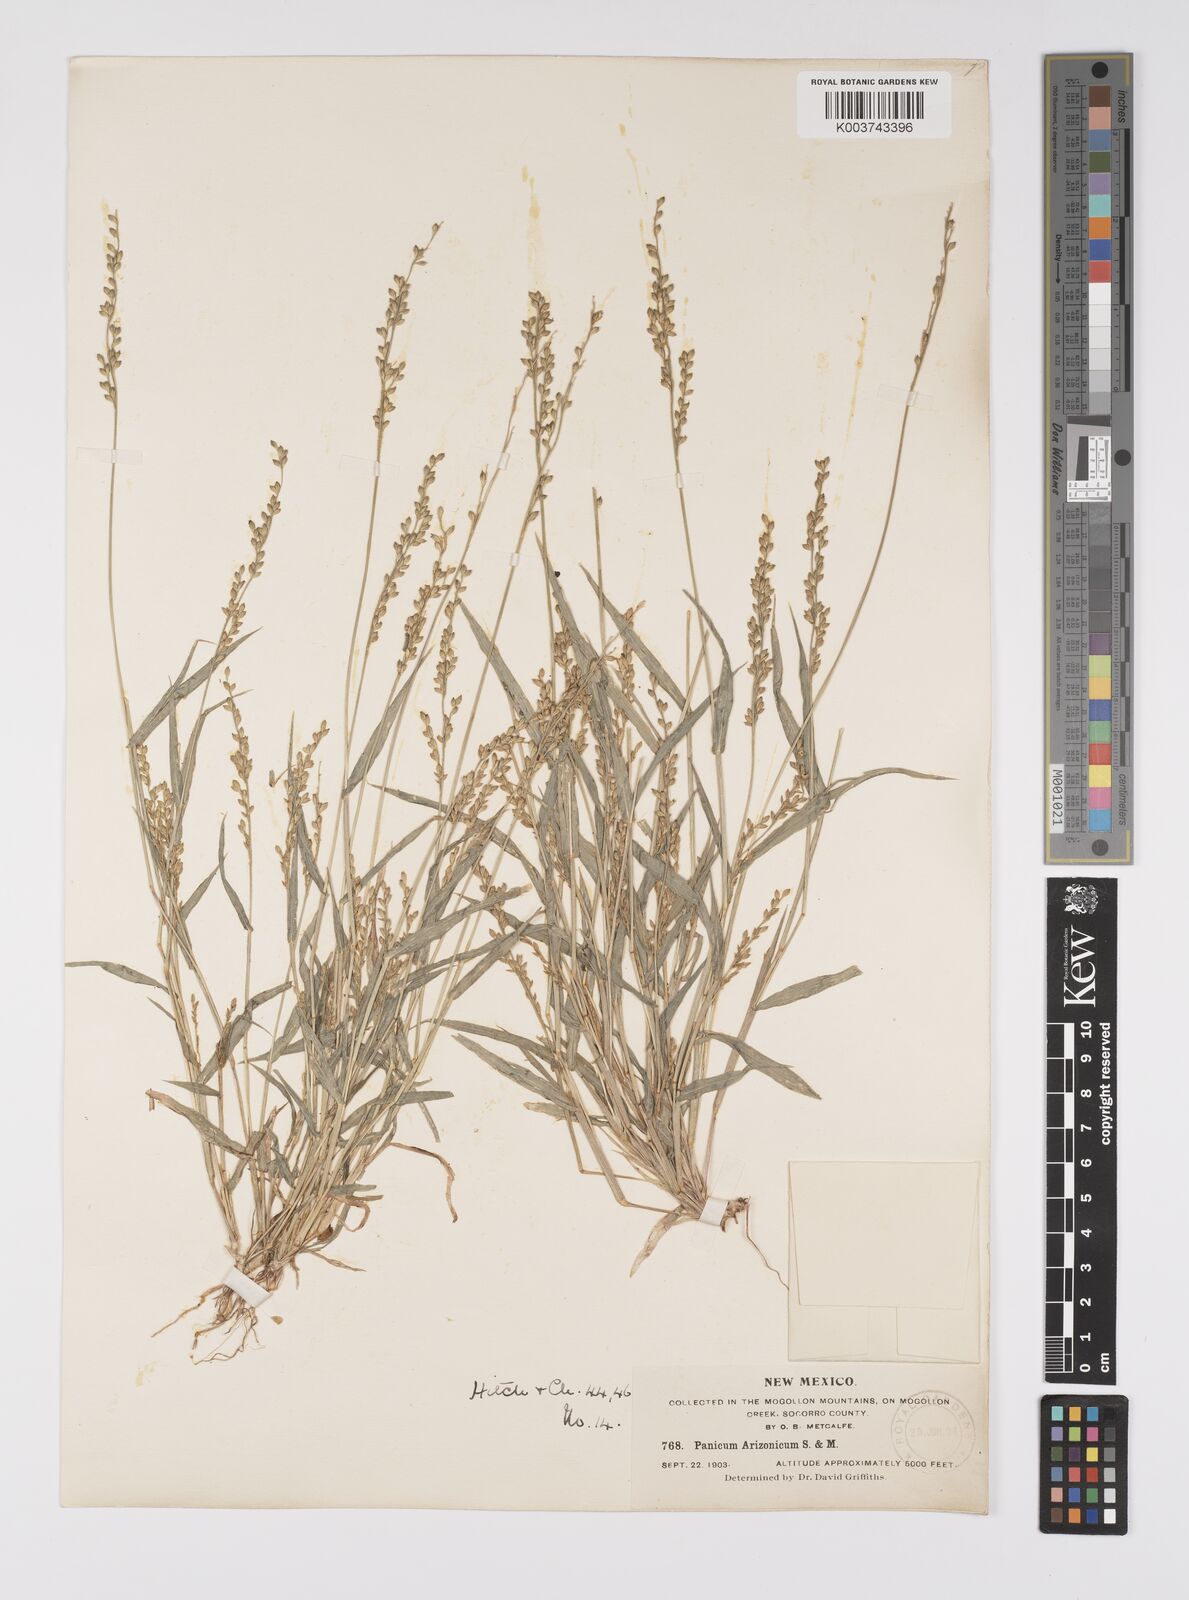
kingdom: Plantae
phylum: Tracheophyta
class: Liliopsida
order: Poales
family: Poaceae
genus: Urochloa
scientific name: Urochloa arizonica
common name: Arizona signal grass
